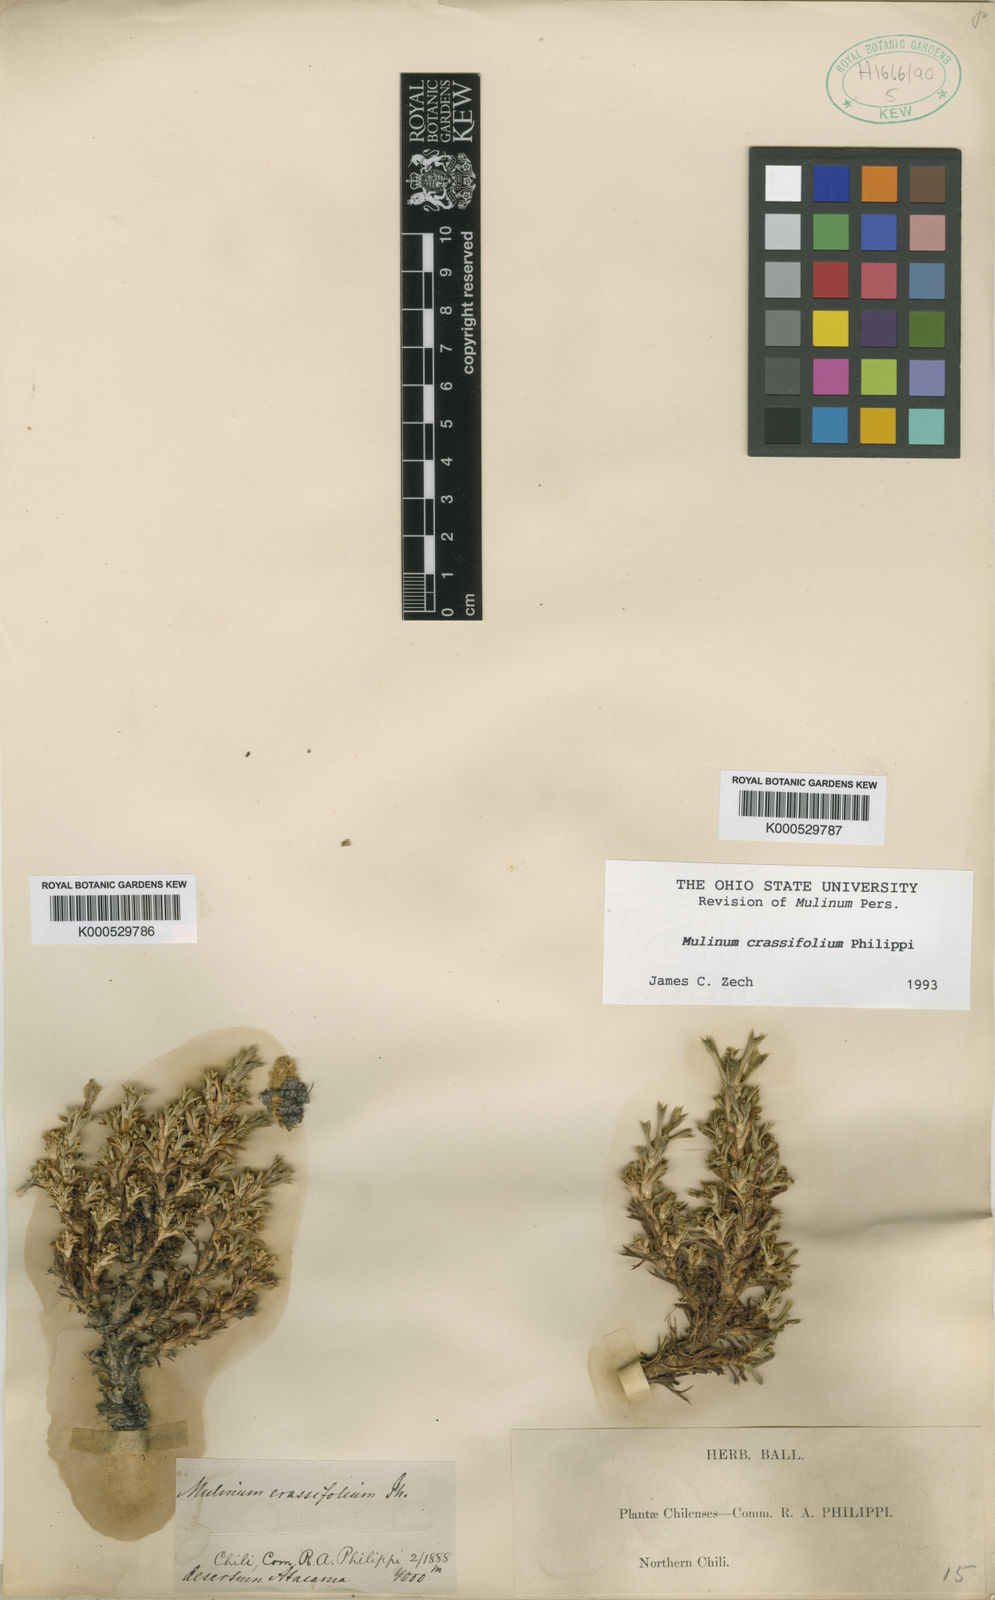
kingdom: Plantae
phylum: Tracheophyta
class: Magnoliopsida
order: Apiales
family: Apiaceae
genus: Azorella
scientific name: Azorella trisecta
